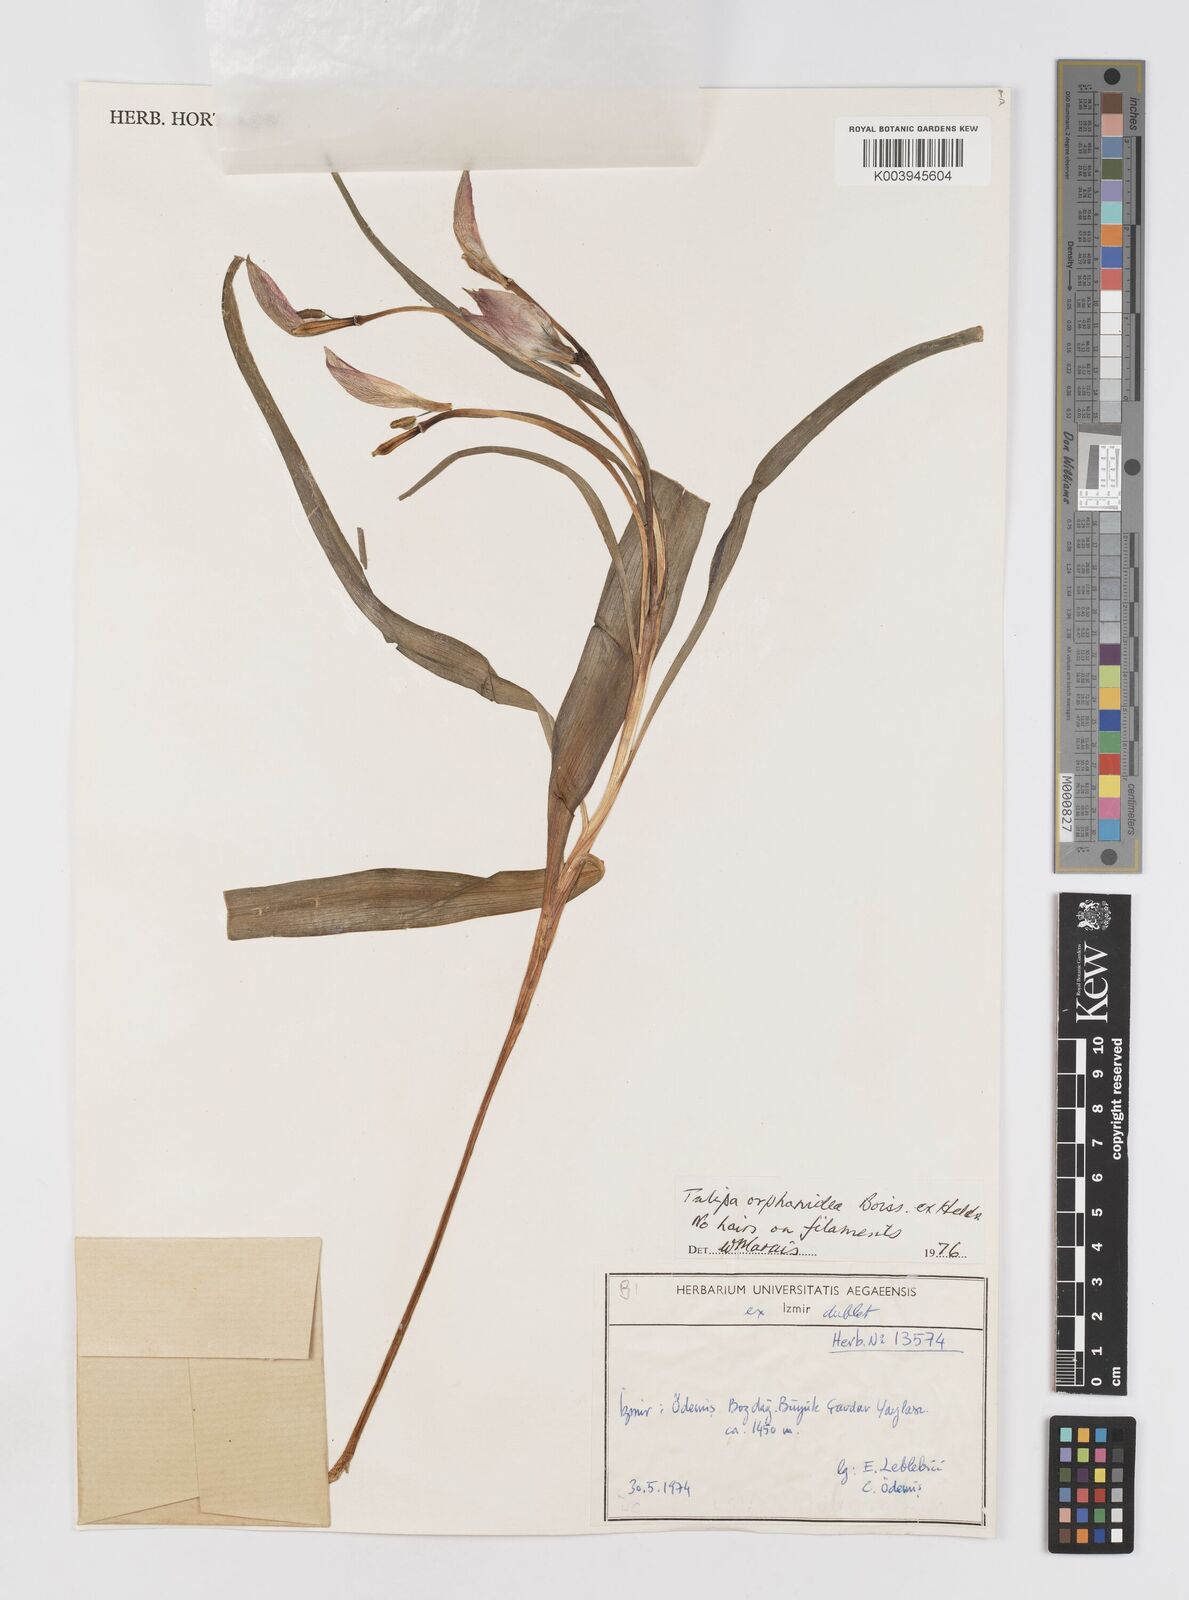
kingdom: Plantae
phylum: Tracheophyta
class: Liliopsida
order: Liliales
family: Liliaceae
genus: Tulipa
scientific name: Tulipa orphanidea
